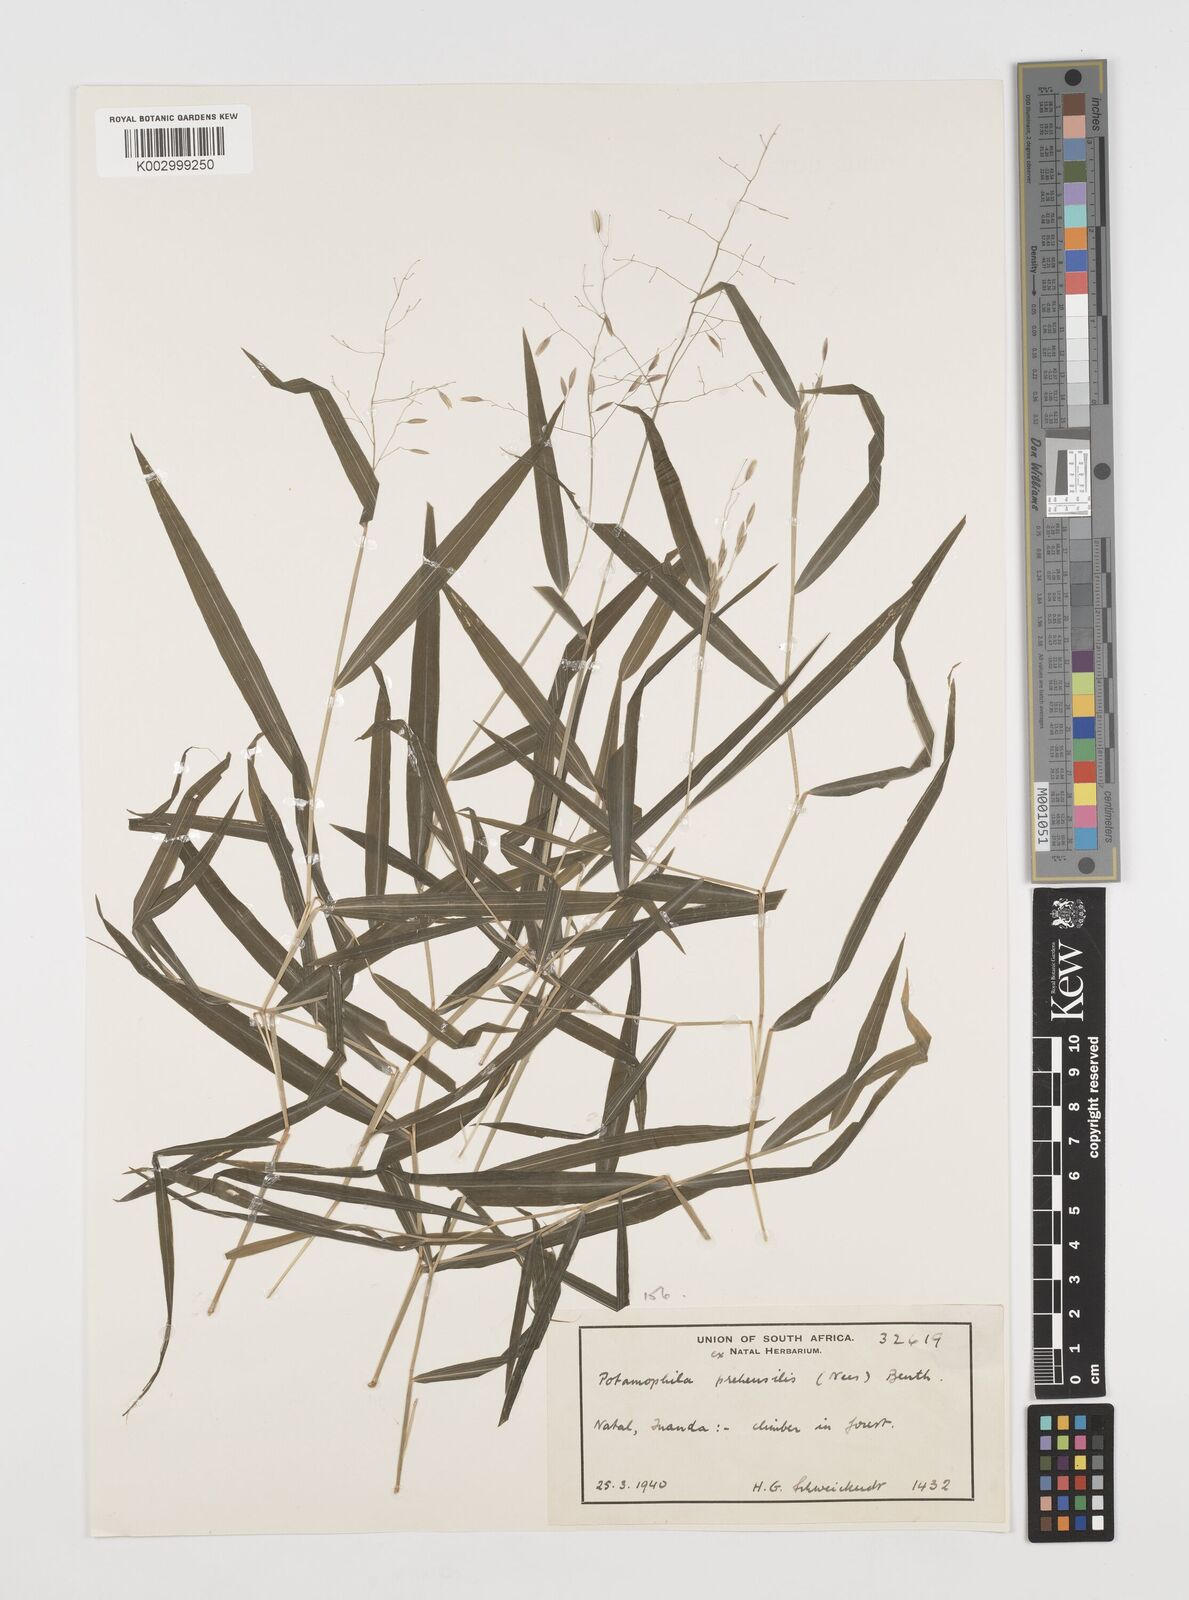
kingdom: Plantae
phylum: Tracheophyta
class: Liliopsida
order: Poales
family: Poaceae
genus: Prosphytochloa
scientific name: Prosphytochloa prehensilis
